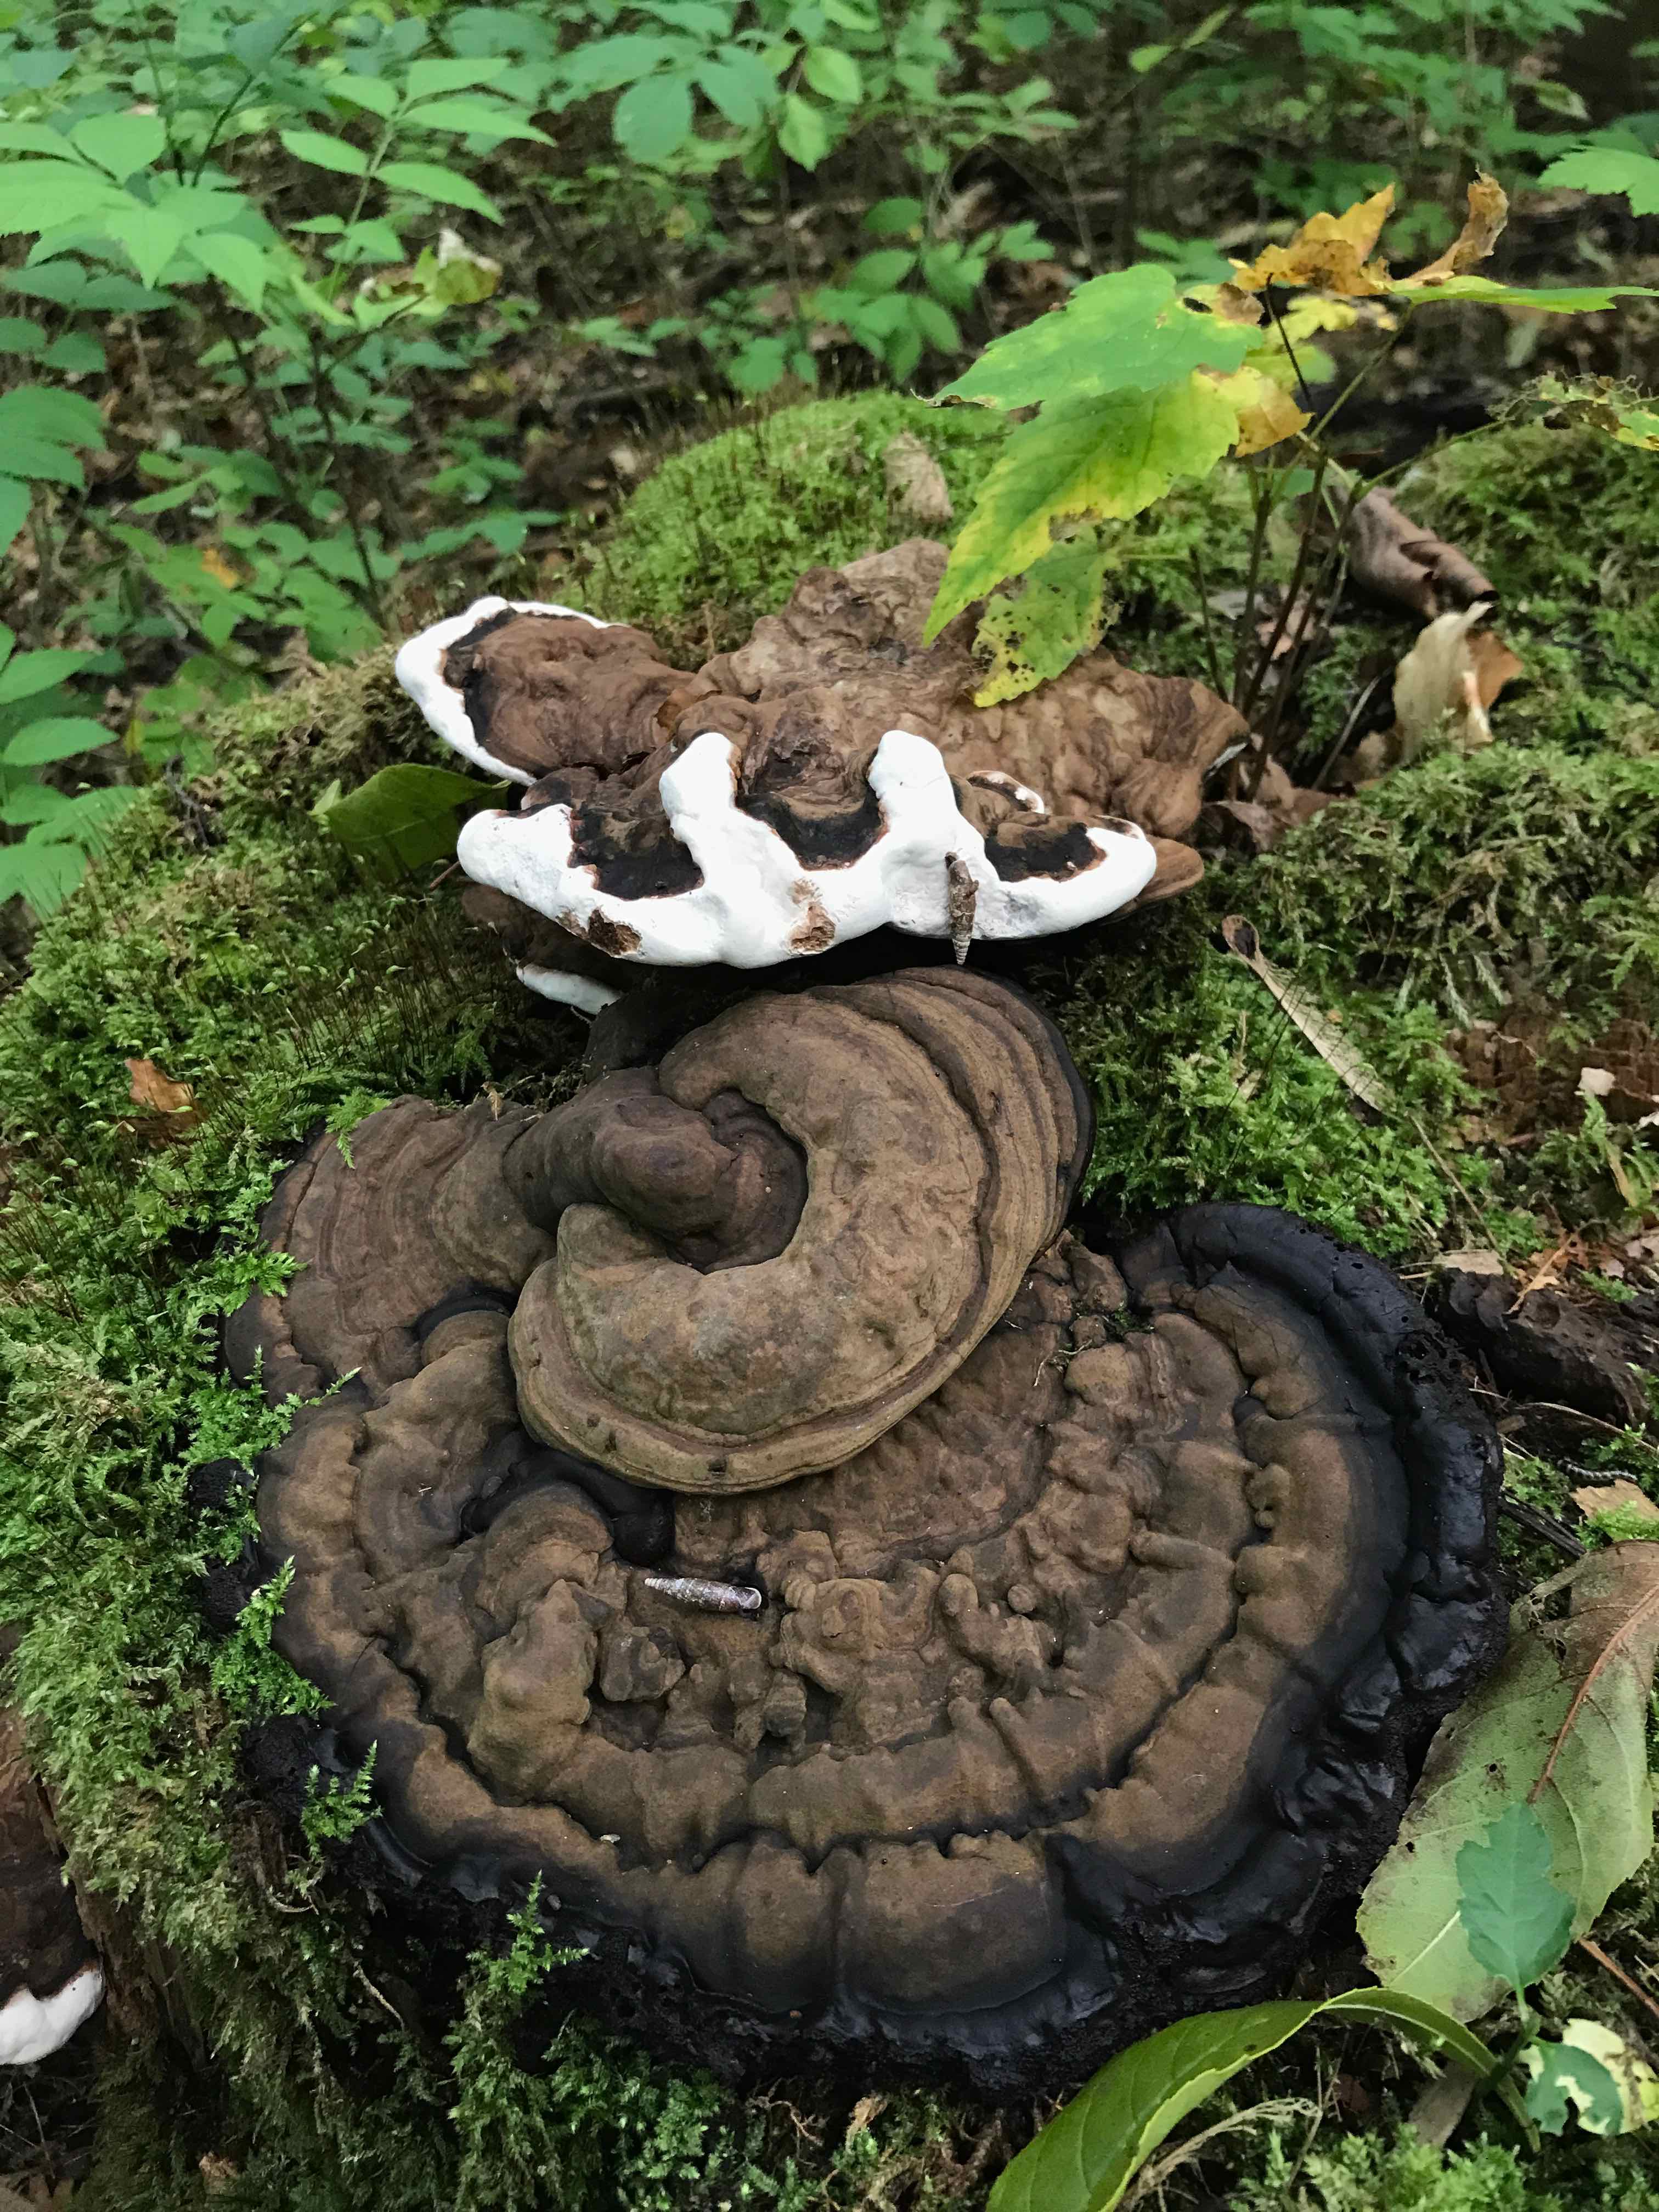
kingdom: Fungi
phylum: Basidiomycota
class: Agaricomycetes
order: Polyporales
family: Polyporaceae
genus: Ganoderma
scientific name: Ganoderma applanatum
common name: flad lakporesvamp
